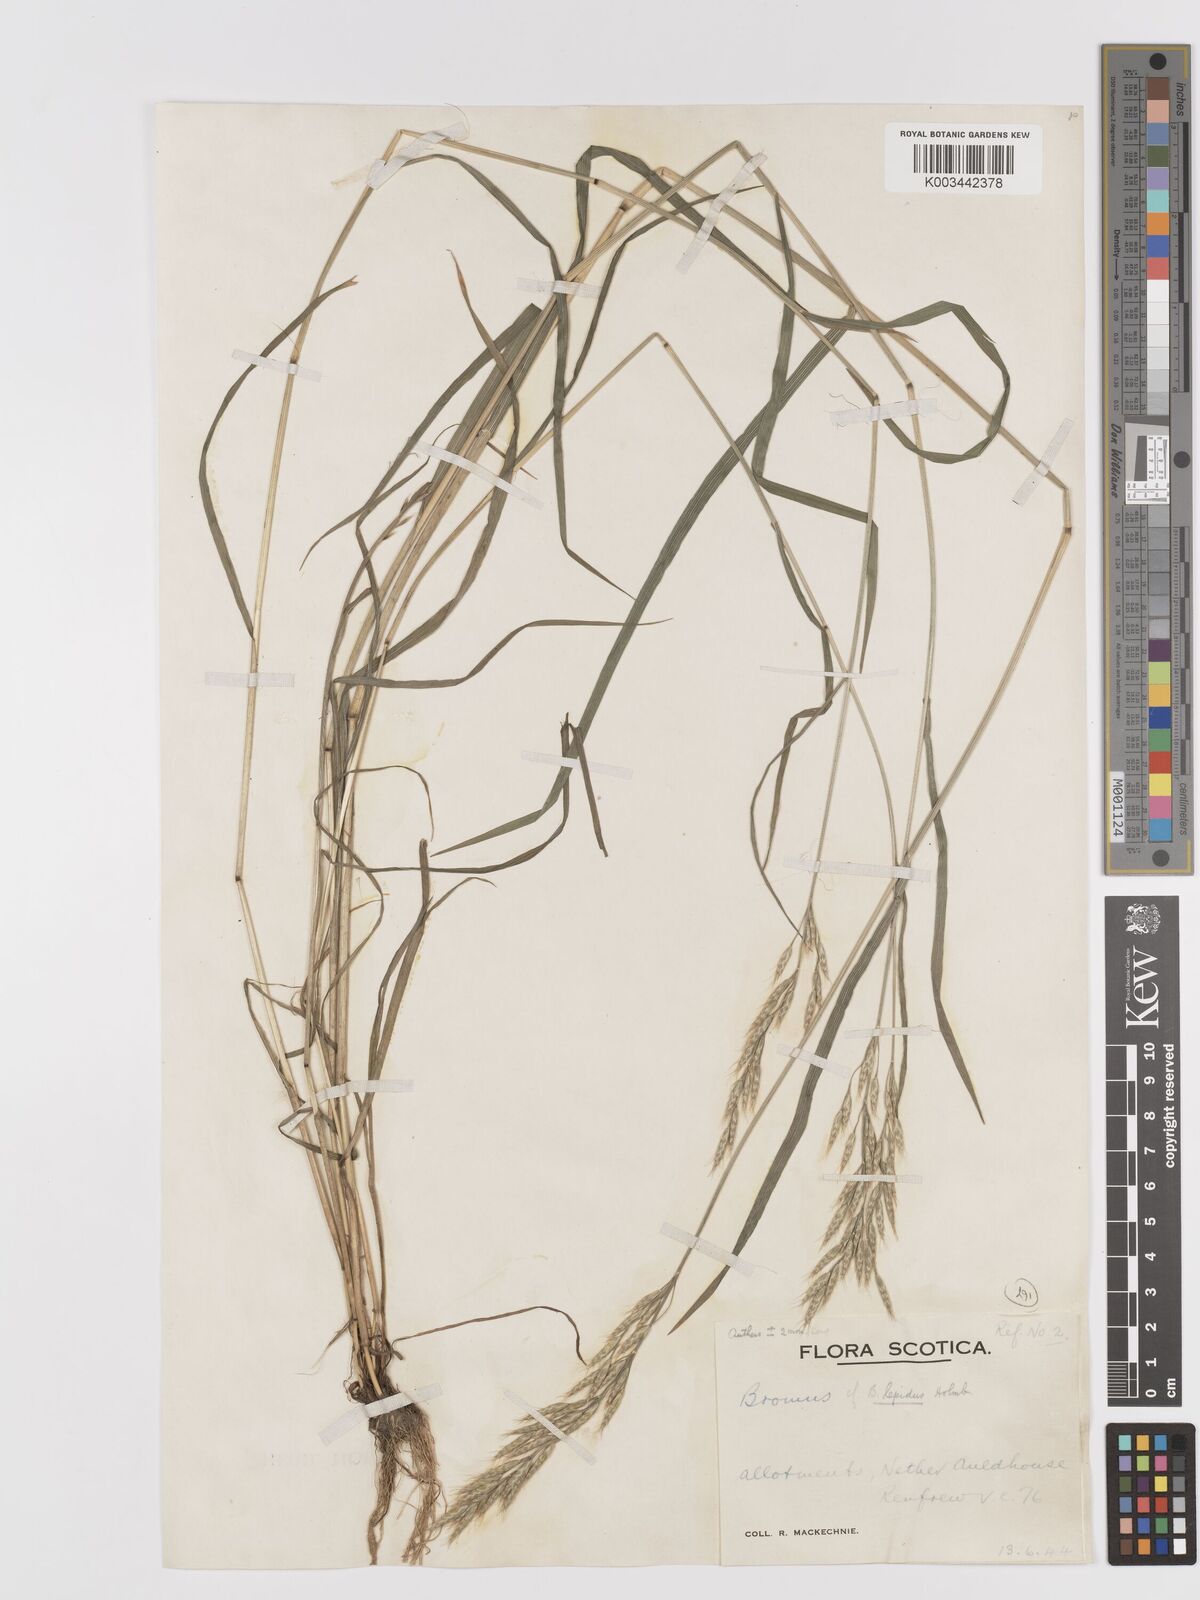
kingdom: Plantae
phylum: Tracheophyta
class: Liliopsida
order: Poales
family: Poaceae
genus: Bromus
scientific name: Bromus lepidus
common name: Slender soft-brome
